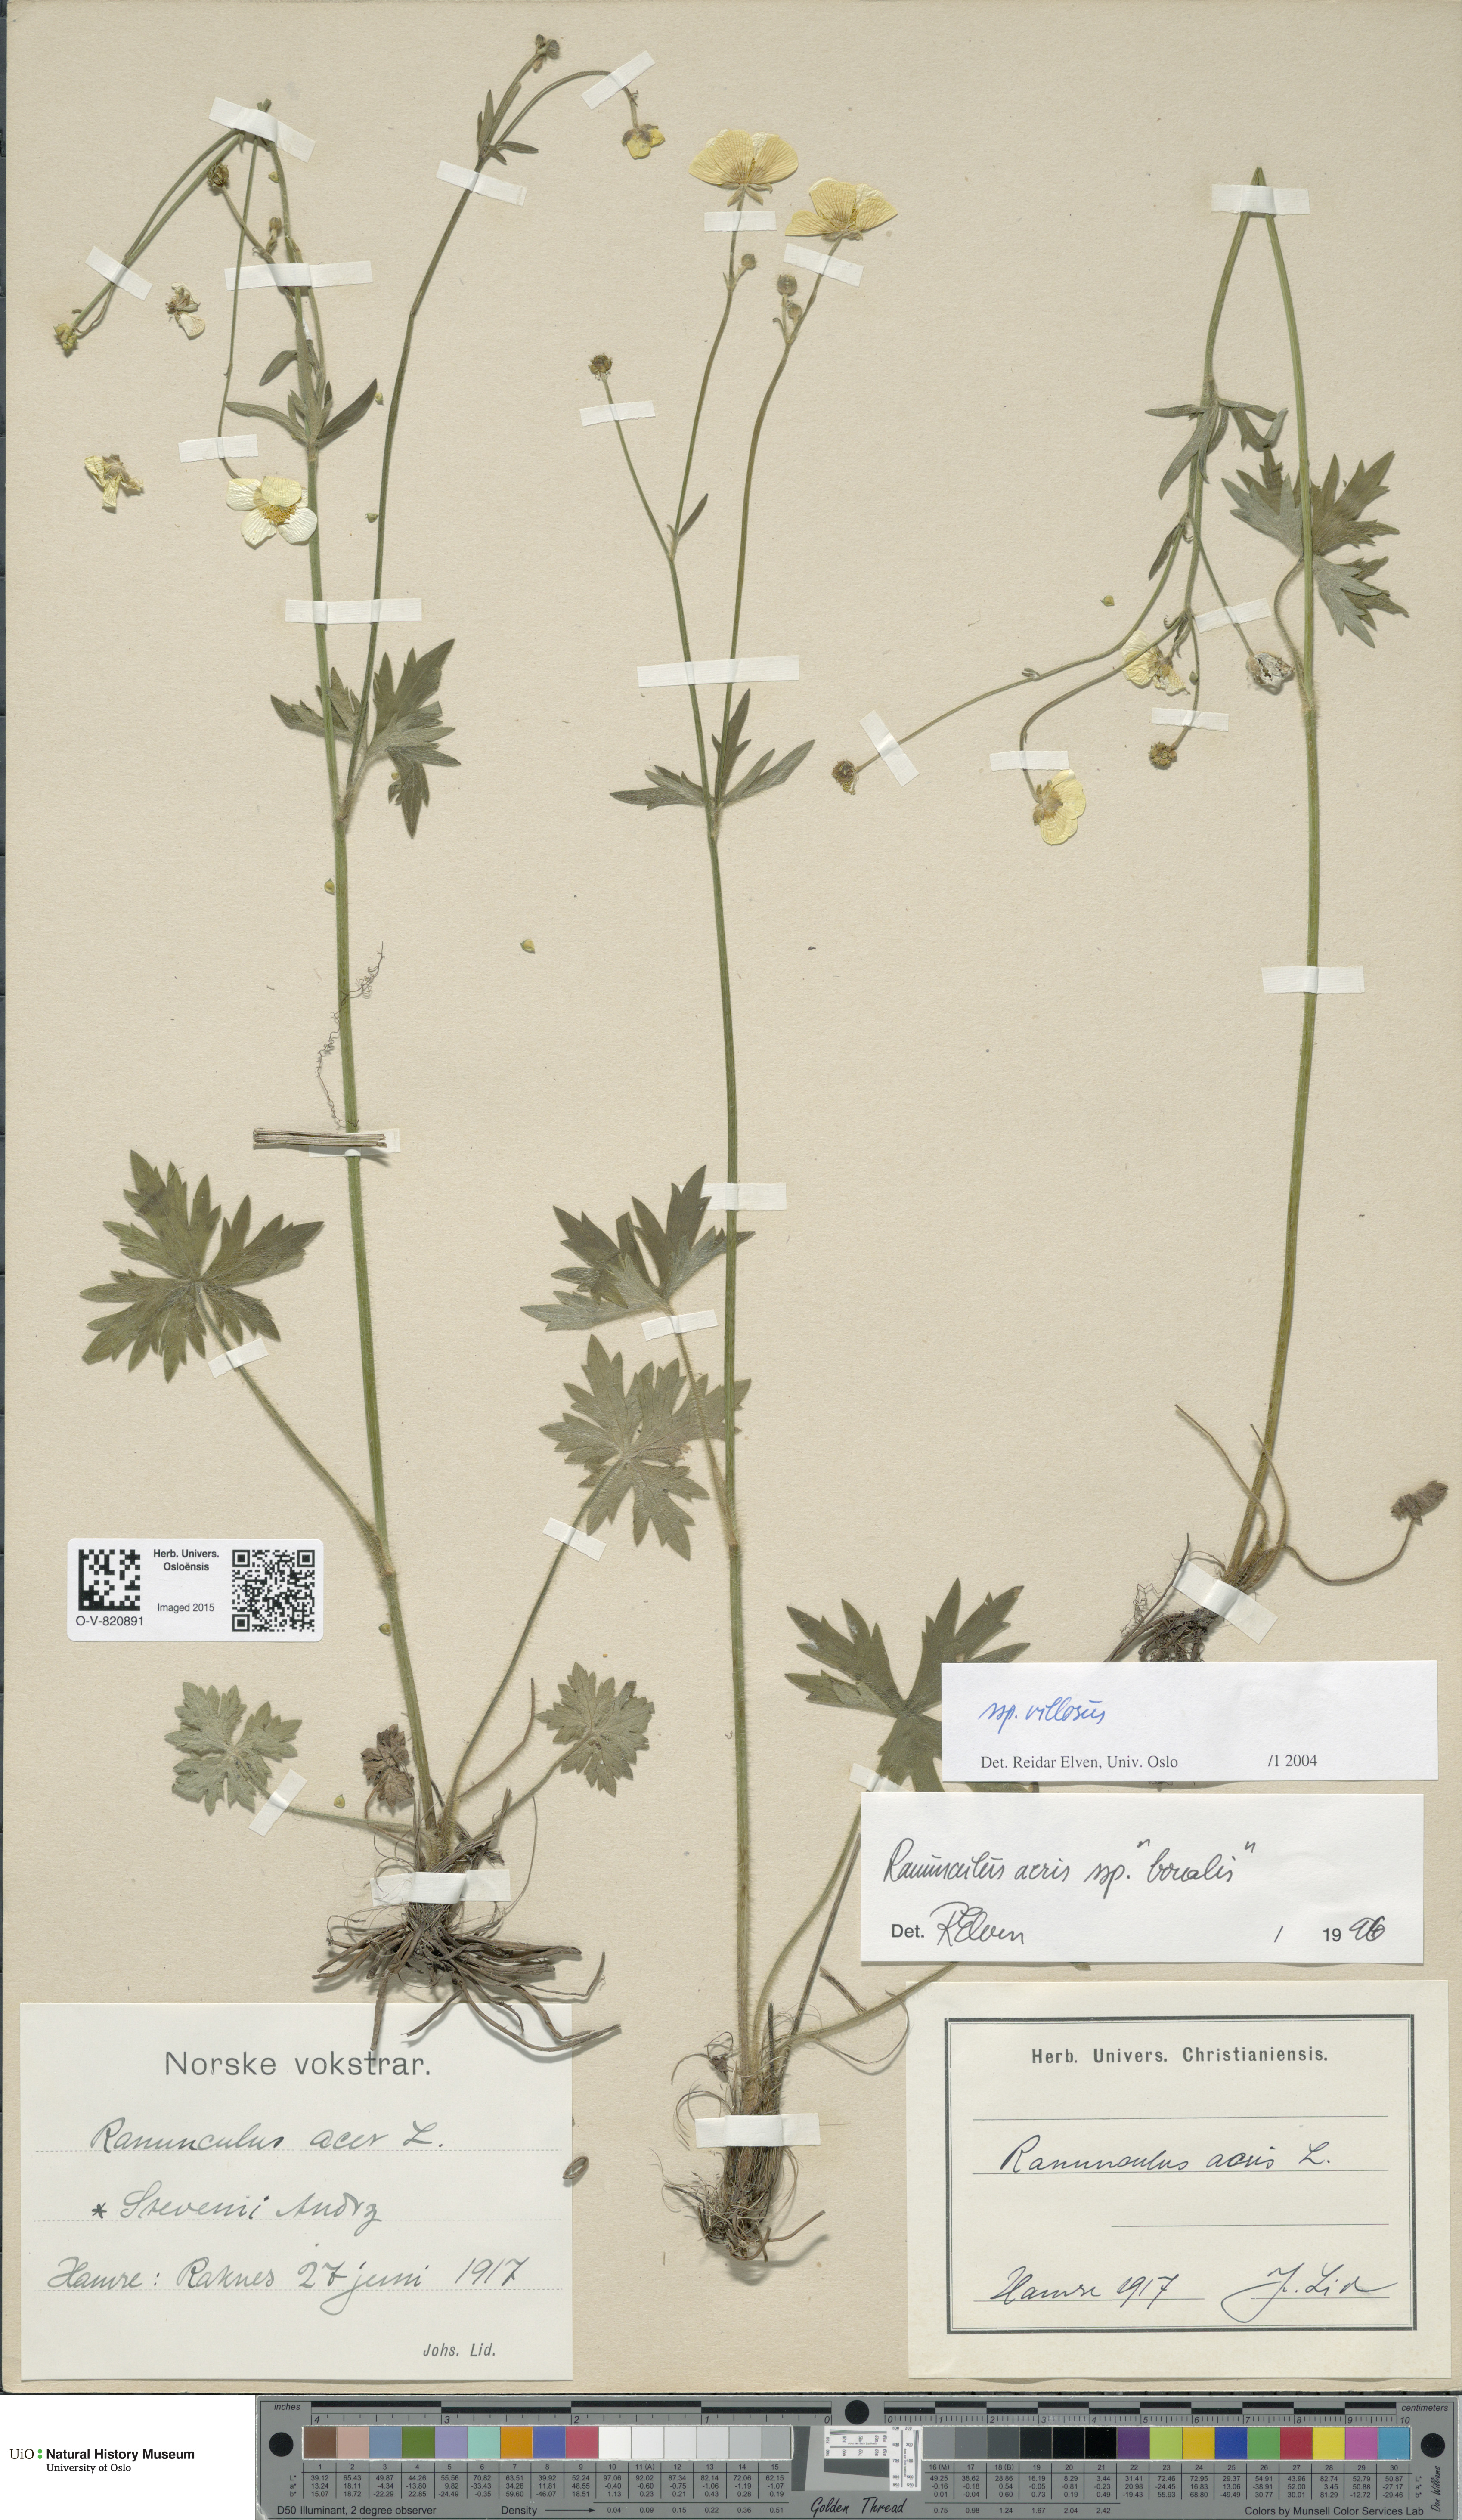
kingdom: Plantae
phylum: Tracheophyta
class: Magnoliopsida
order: Ranunculales
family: Ranunculaceae
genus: Ranunculus
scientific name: Ranunculus propinquus
